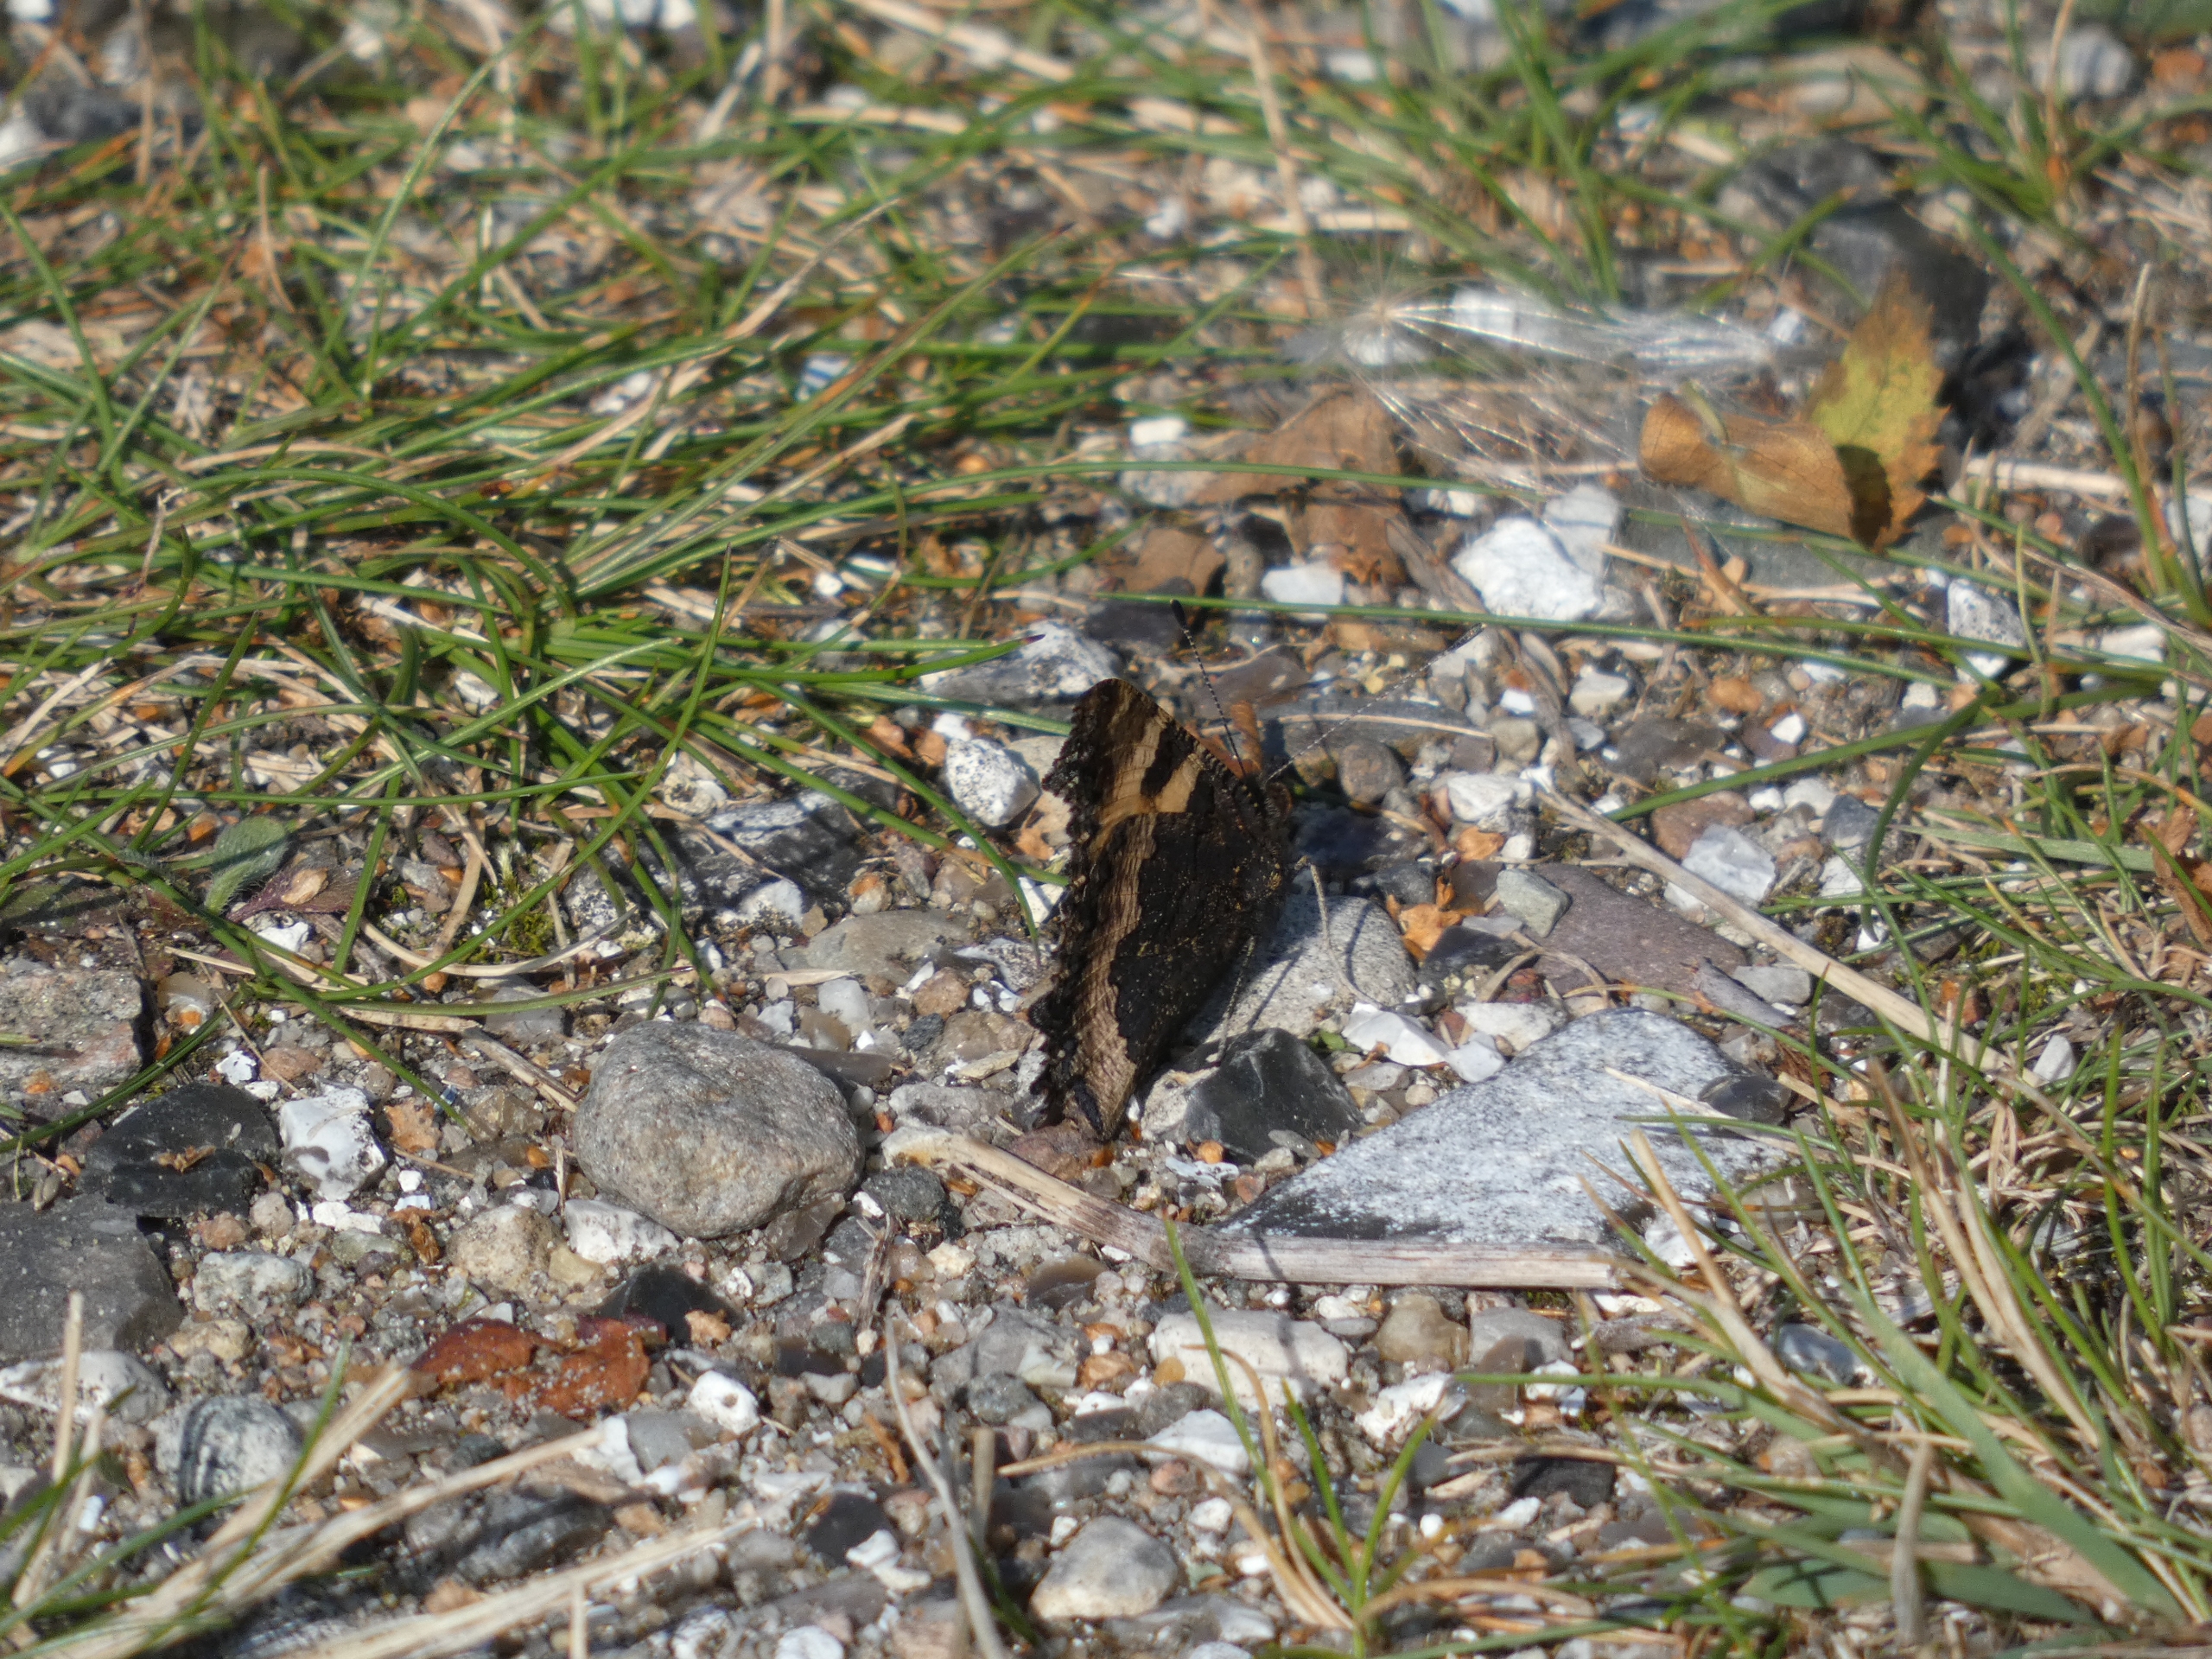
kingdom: Animalia
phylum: Arthropoda
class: Insecta
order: Lepidoptera
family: Nymphalidae
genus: Aglais
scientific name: Aglais urticae
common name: Nældens takvinge
